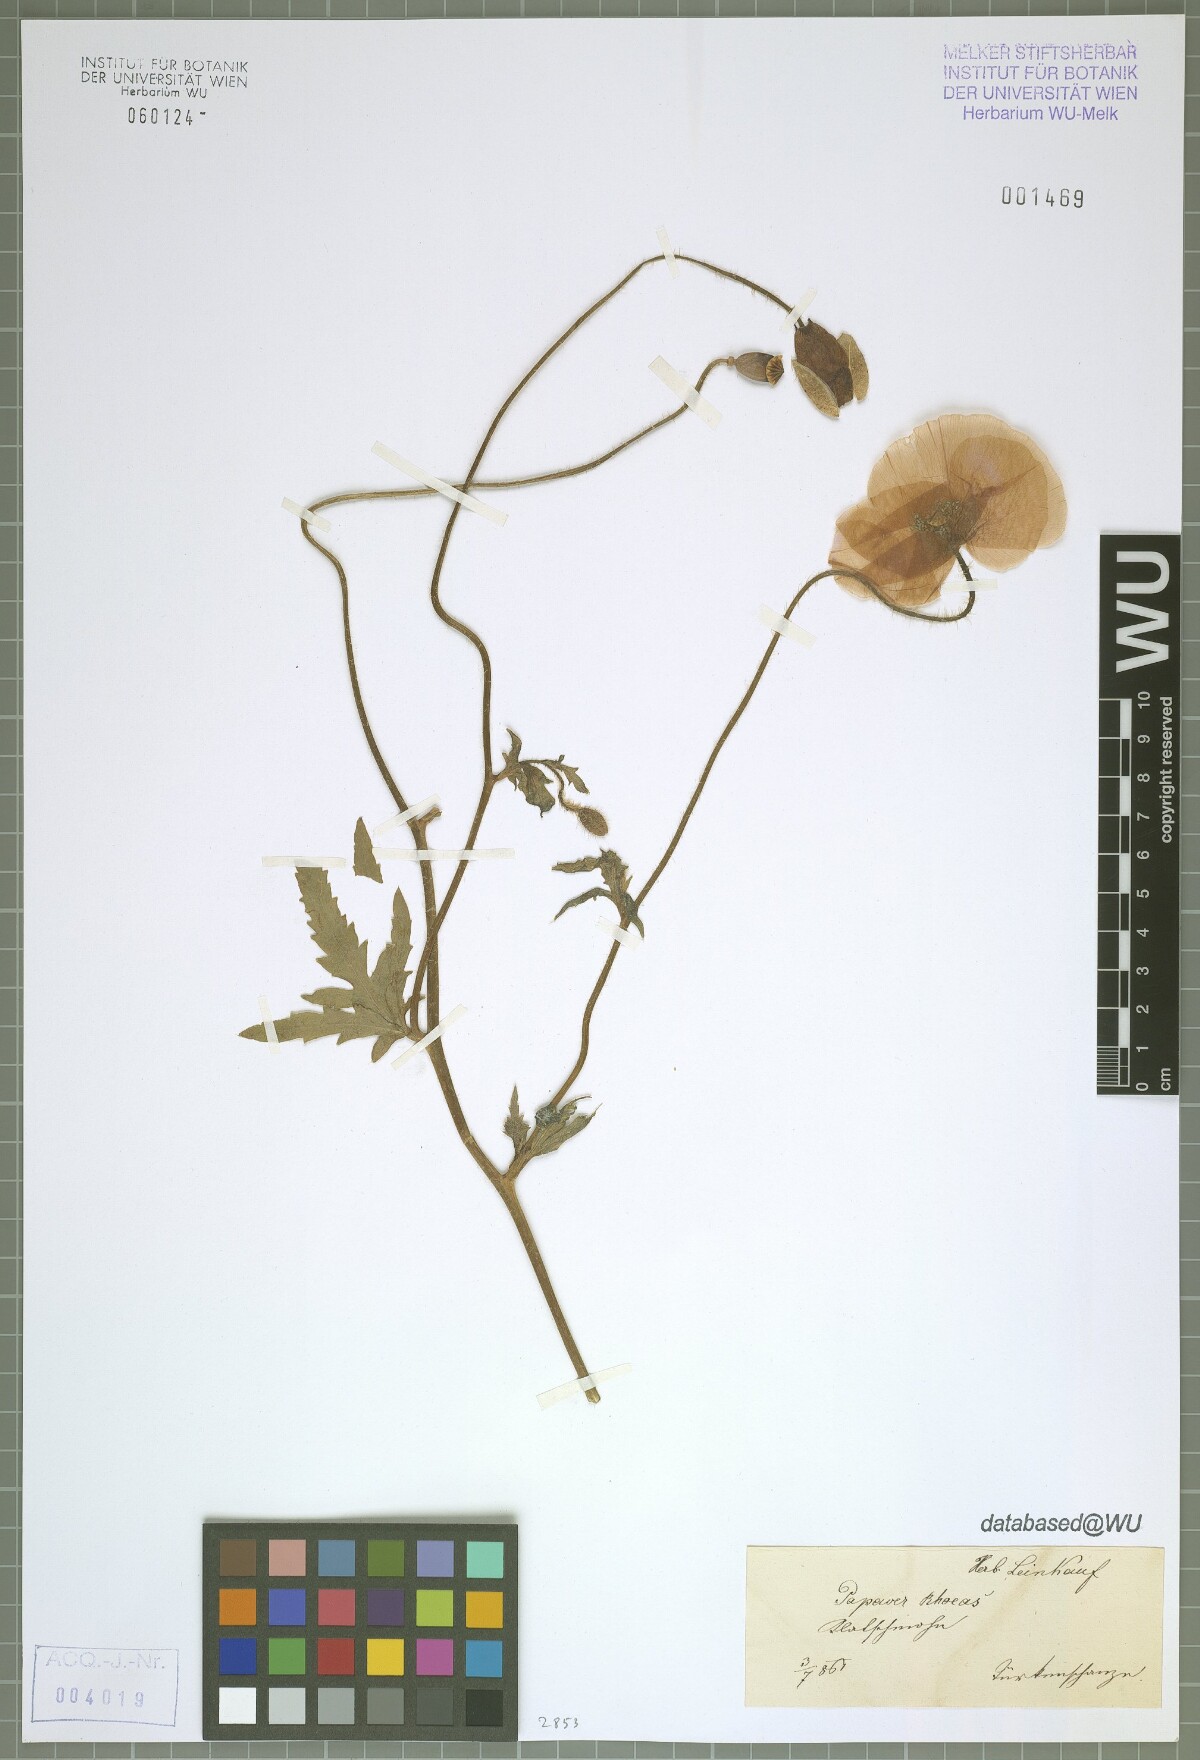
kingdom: Plantae
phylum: Tracheophyta
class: Magnoliopsida
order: Ranunculales
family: Papaveraceae
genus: Papaver
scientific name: Papaver rhoeas
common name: Corn poppy
